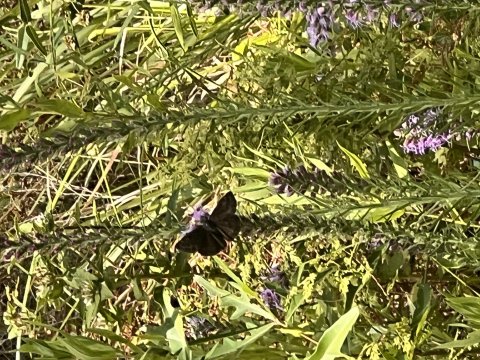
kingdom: Animalia
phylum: Arthropoda
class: Insecta
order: Lepidoptera
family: Hesperiidae
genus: Gesta
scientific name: Gesta
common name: Horace's Duskywing
